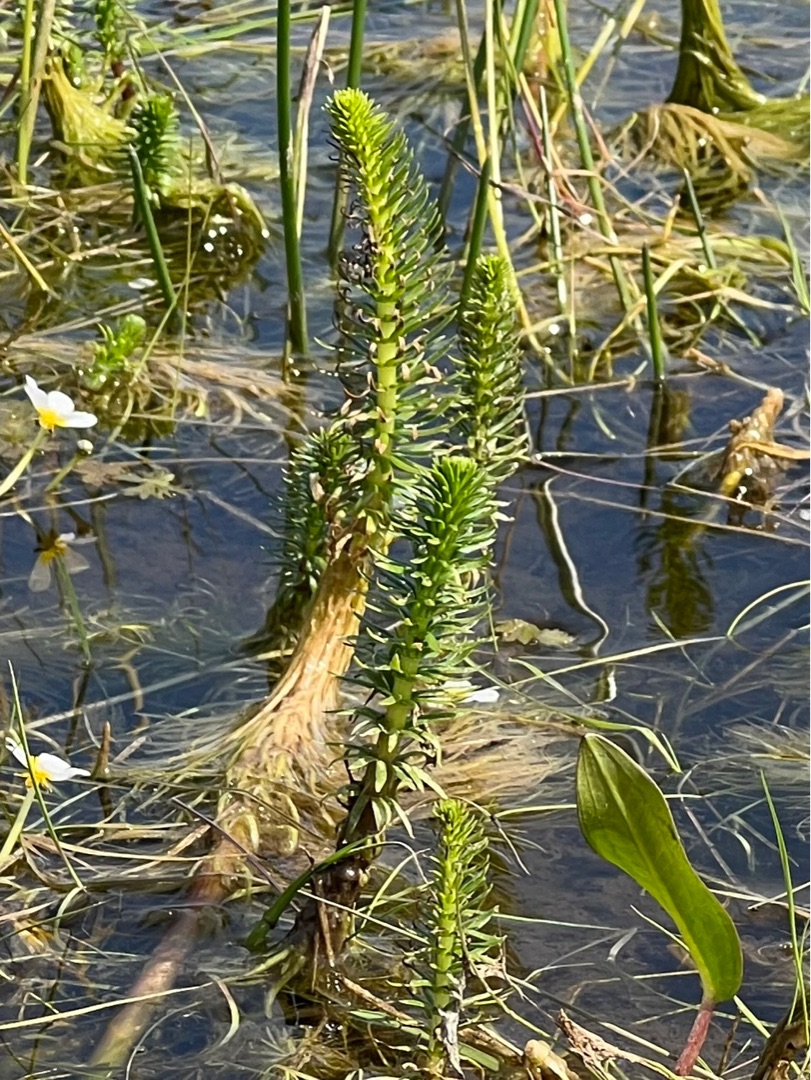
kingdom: Plantae
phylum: Tracheophyta
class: Magnoliopsida
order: Lamiales
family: Plantaginaceae
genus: Hippuris
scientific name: Hippuris vulgaris
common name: Vandspir
